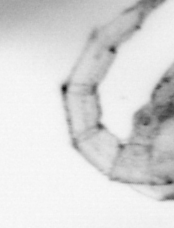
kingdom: Animalia
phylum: Arthropoda
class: Copepoda
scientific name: Copepoda
